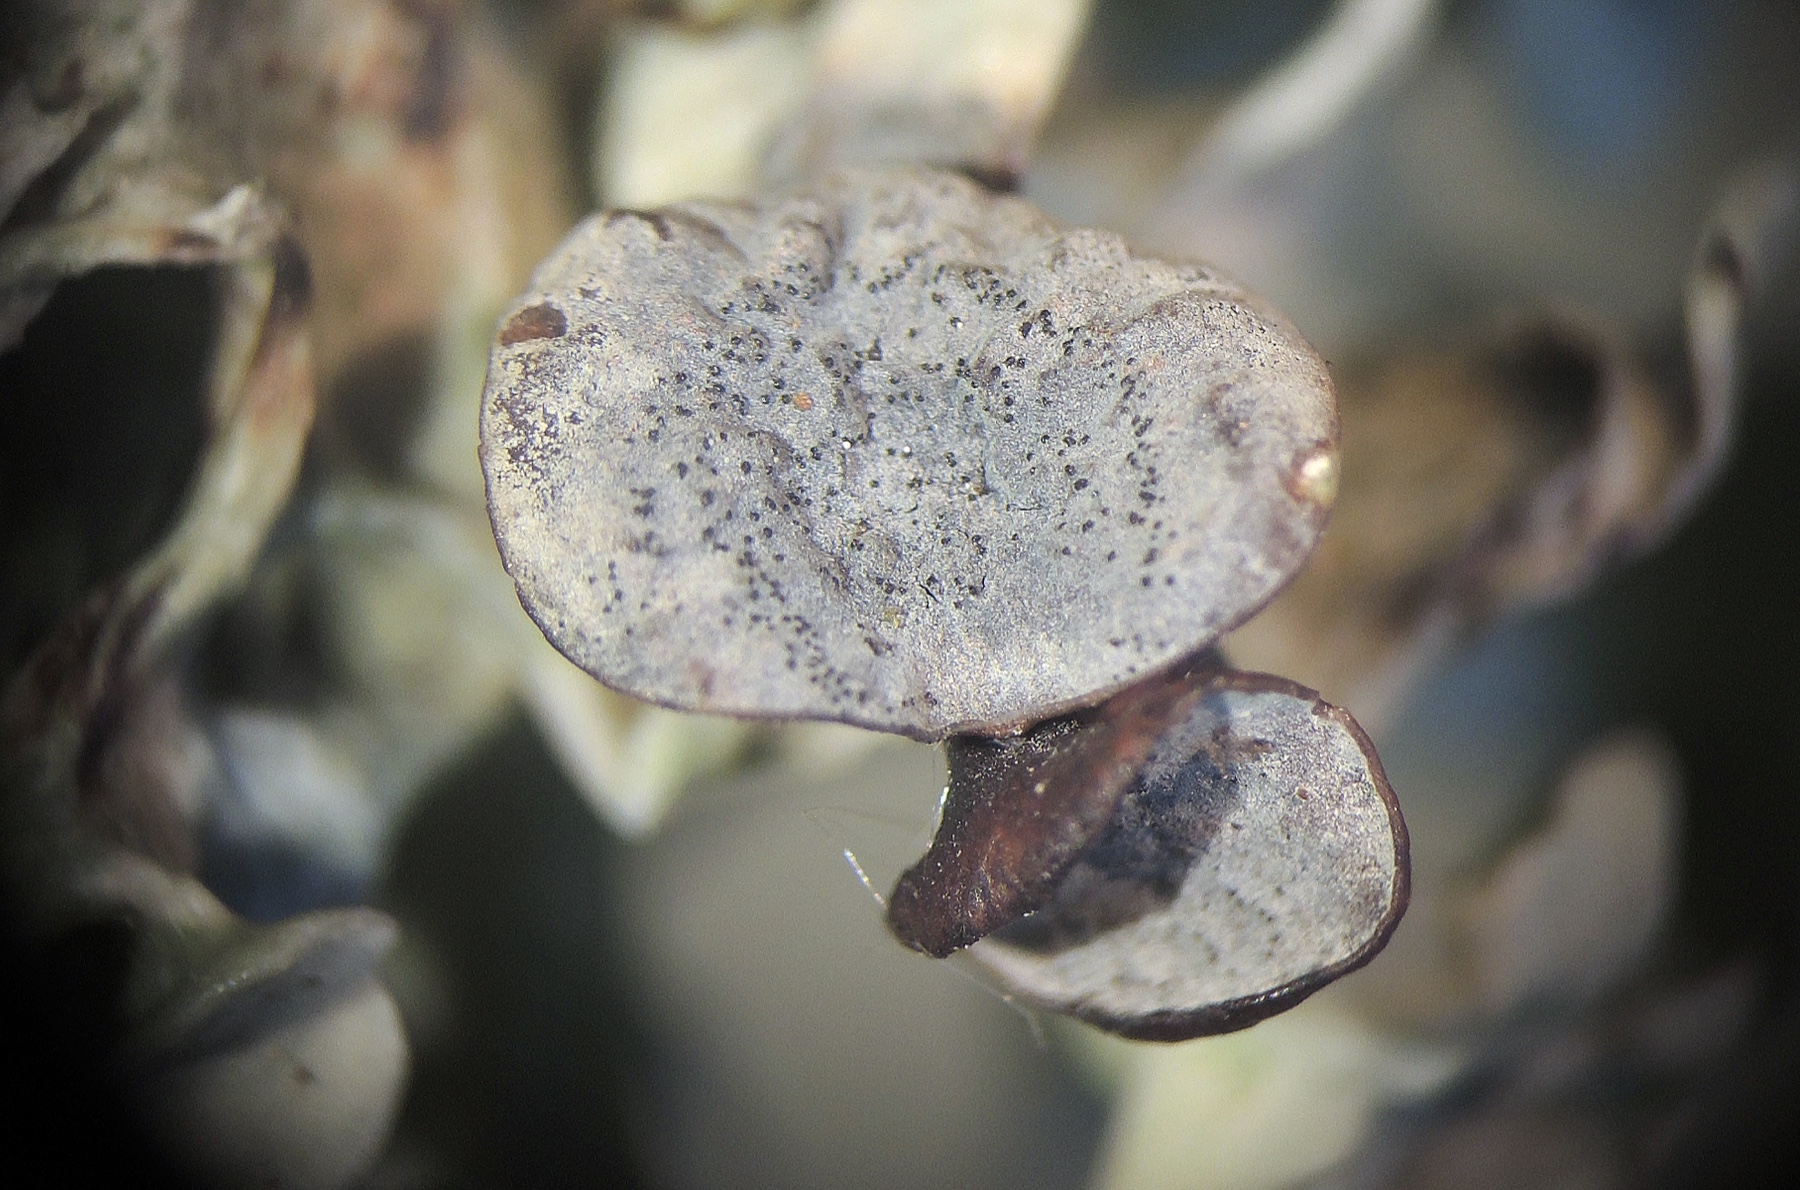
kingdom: Fungi
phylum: Ascomycota
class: Dothideomycetes
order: Abrothallales
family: Abrothallaceae
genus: Abrothallus
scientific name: Abrothallus suecicus
